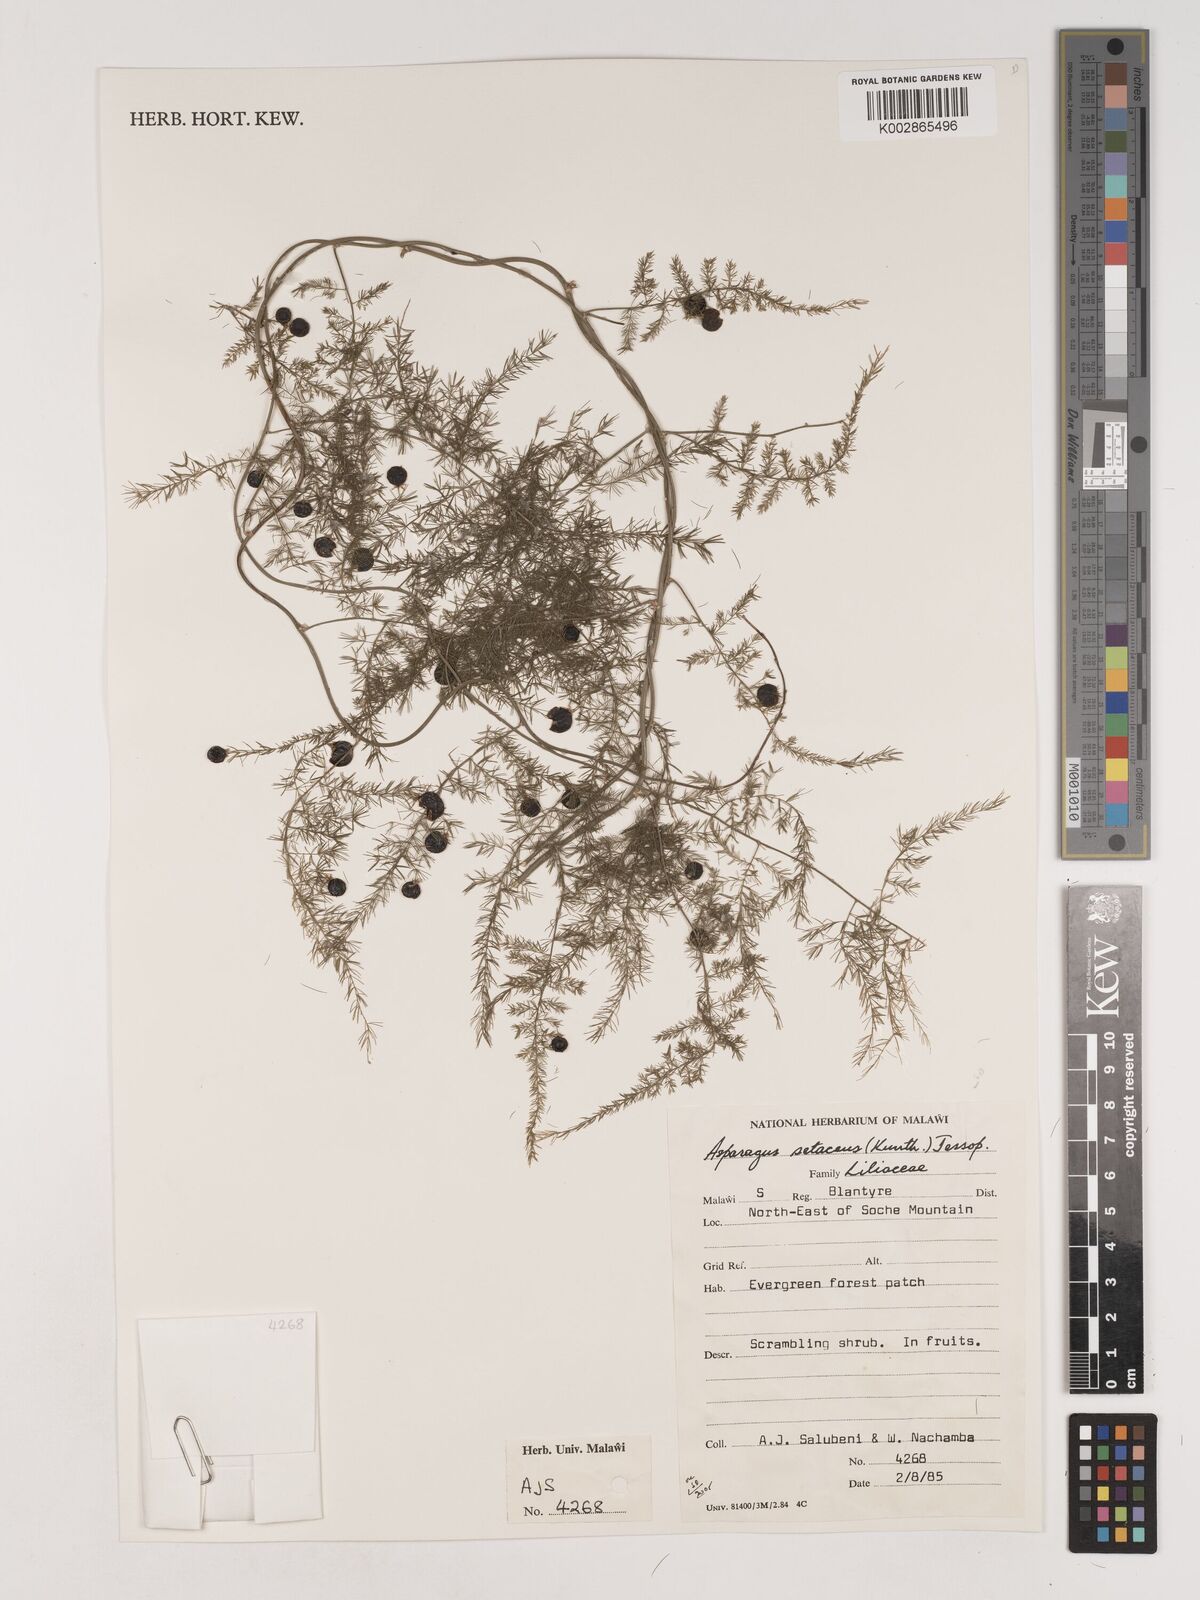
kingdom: Plantae
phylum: Tracheophyta
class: Liliopsida
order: Asparagales
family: Asparagaceae
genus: Asparagus
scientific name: Asparagus setaceus
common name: Common asparagus fern
